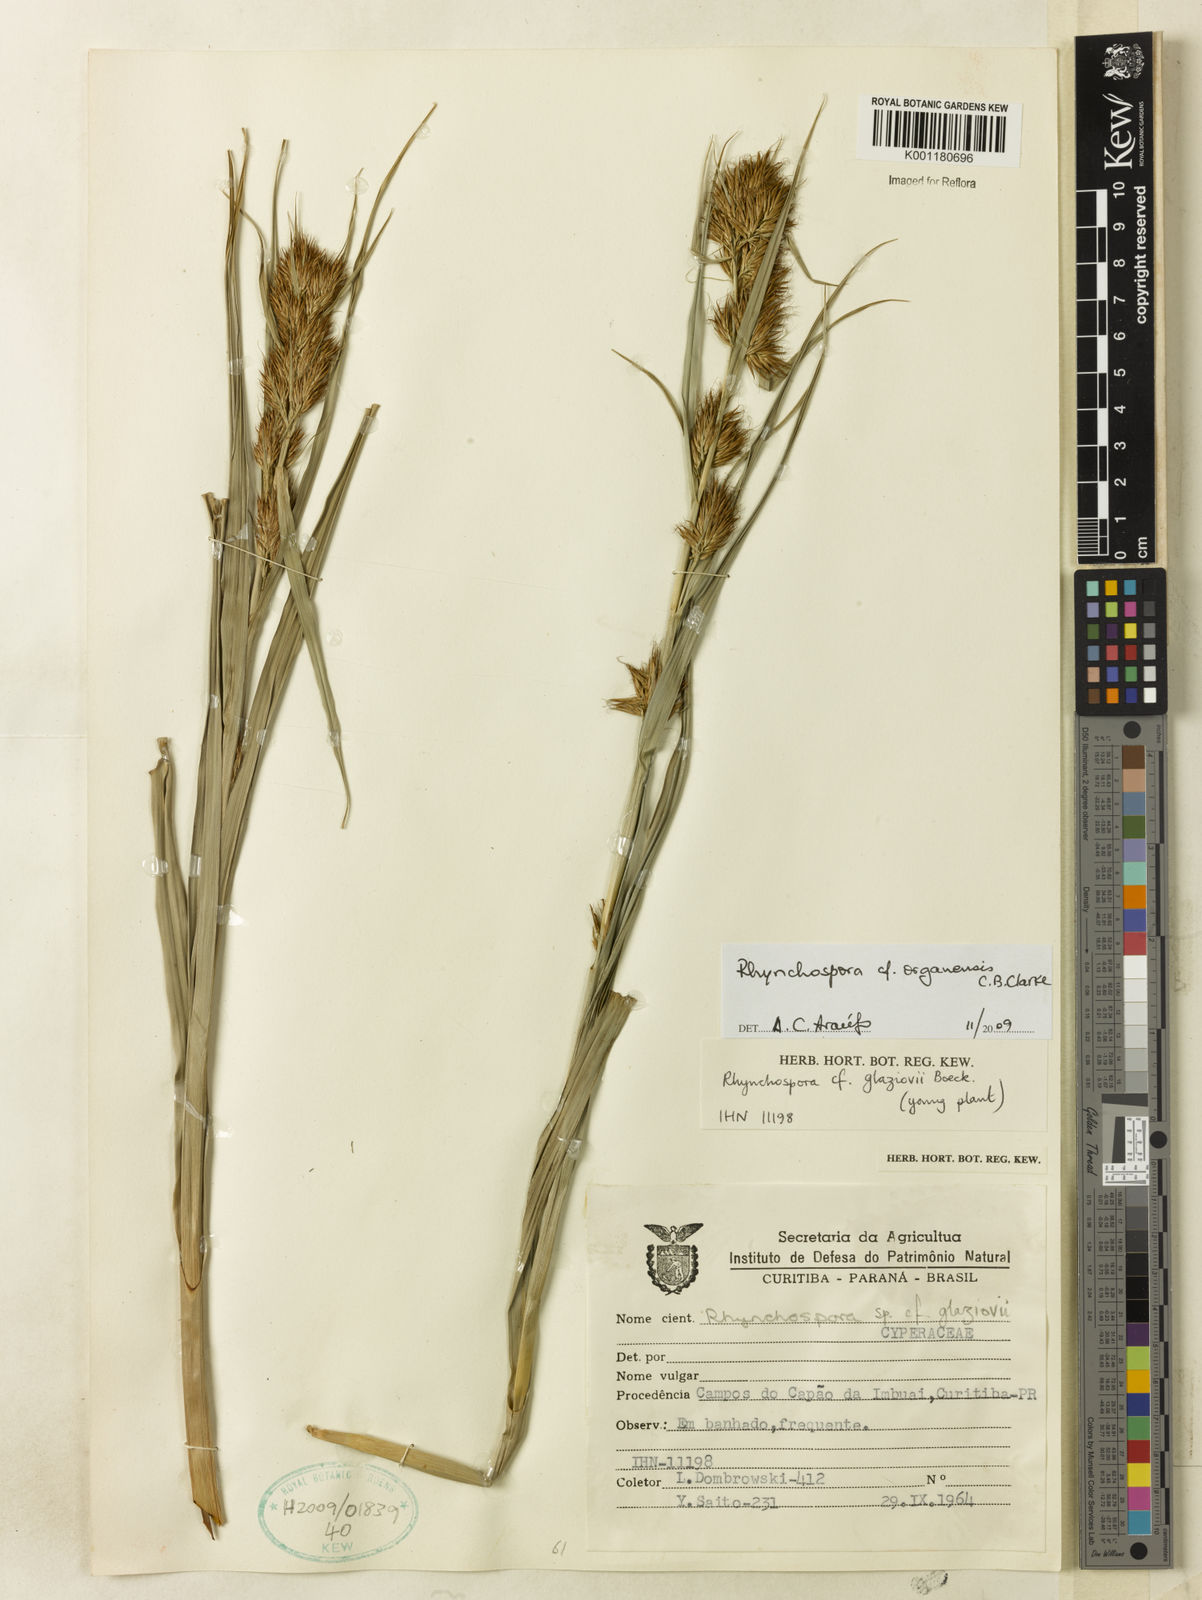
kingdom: Plantae
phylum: Tracheophyta
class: Liliopsida
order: Poales
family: Cyperaceae
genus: Rhynchospora
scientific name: Rhynchospora organensis
